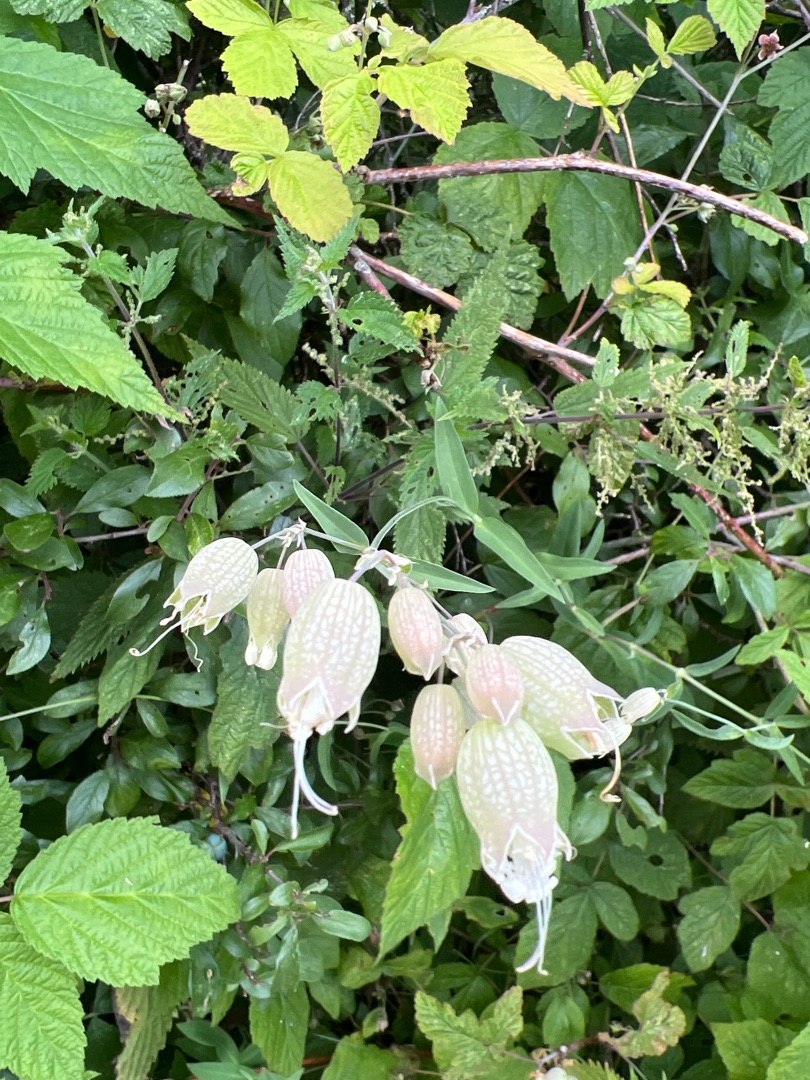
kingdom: Plantae
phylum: Tracheophyta
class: Magnoliopsida
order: Caryophyllales
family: Caryophyllaceae
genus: Silene
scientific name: Silene vulgaris
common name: Blæresmælde
